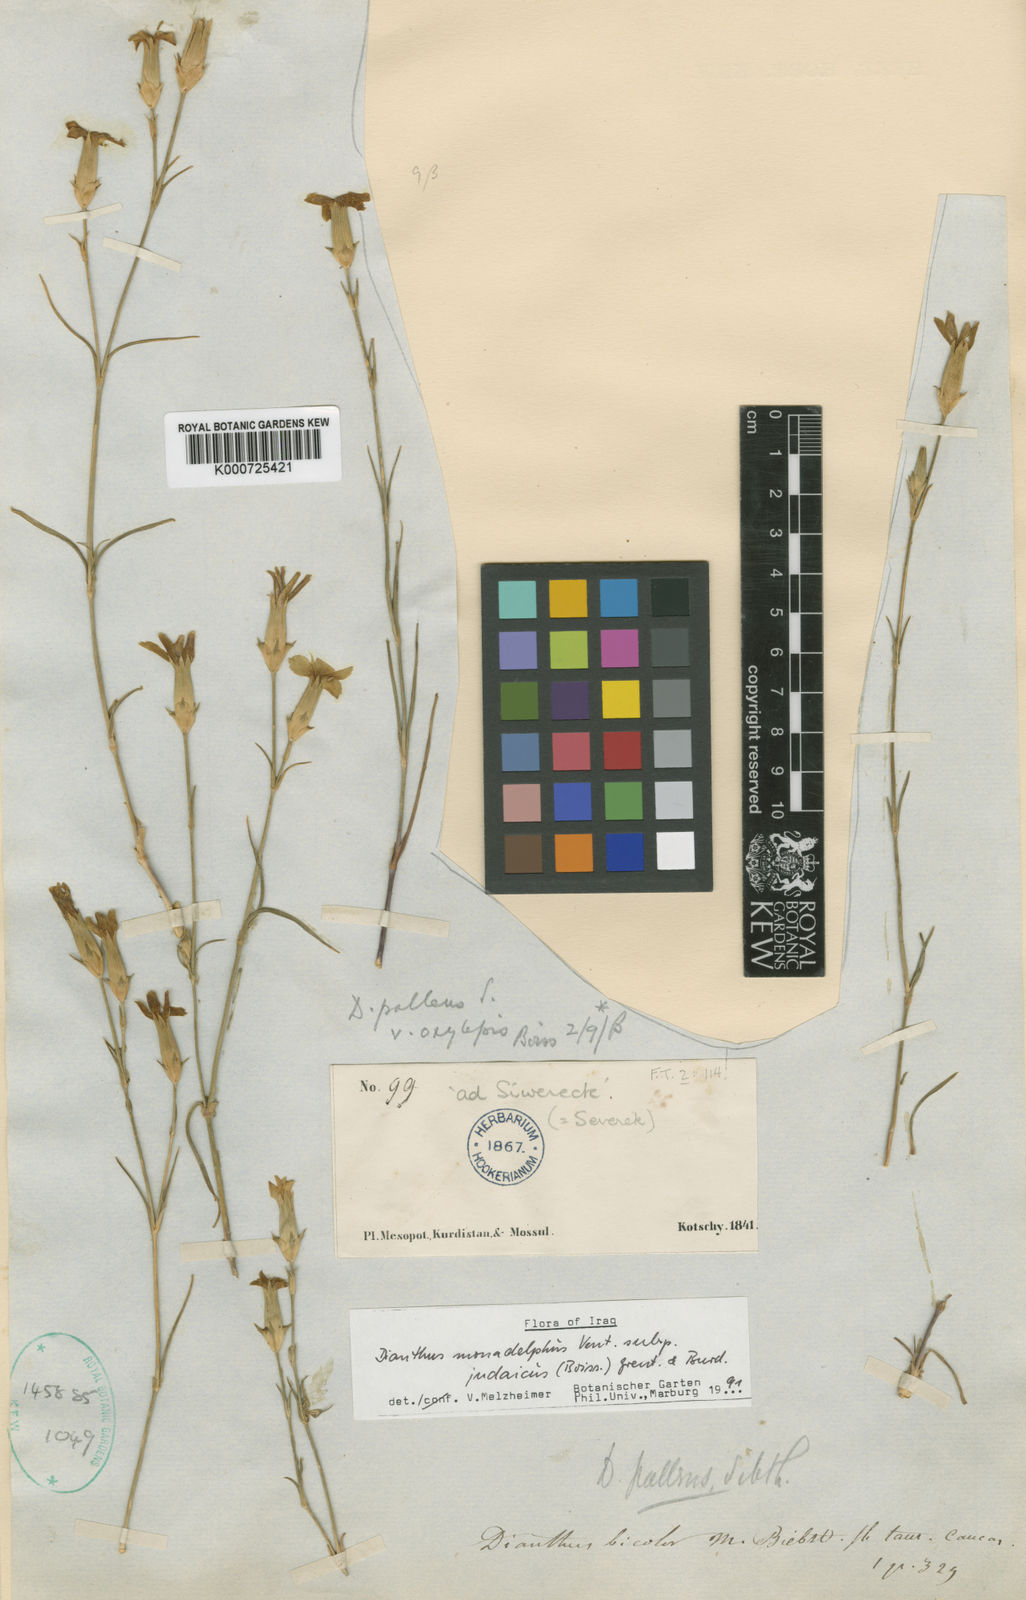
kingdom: Plantae
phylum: Tracheophyta
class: Magnoliopsida
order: Caryophyllales
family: Caryophyllaceae
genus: Dianthus
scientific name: Dianthus
